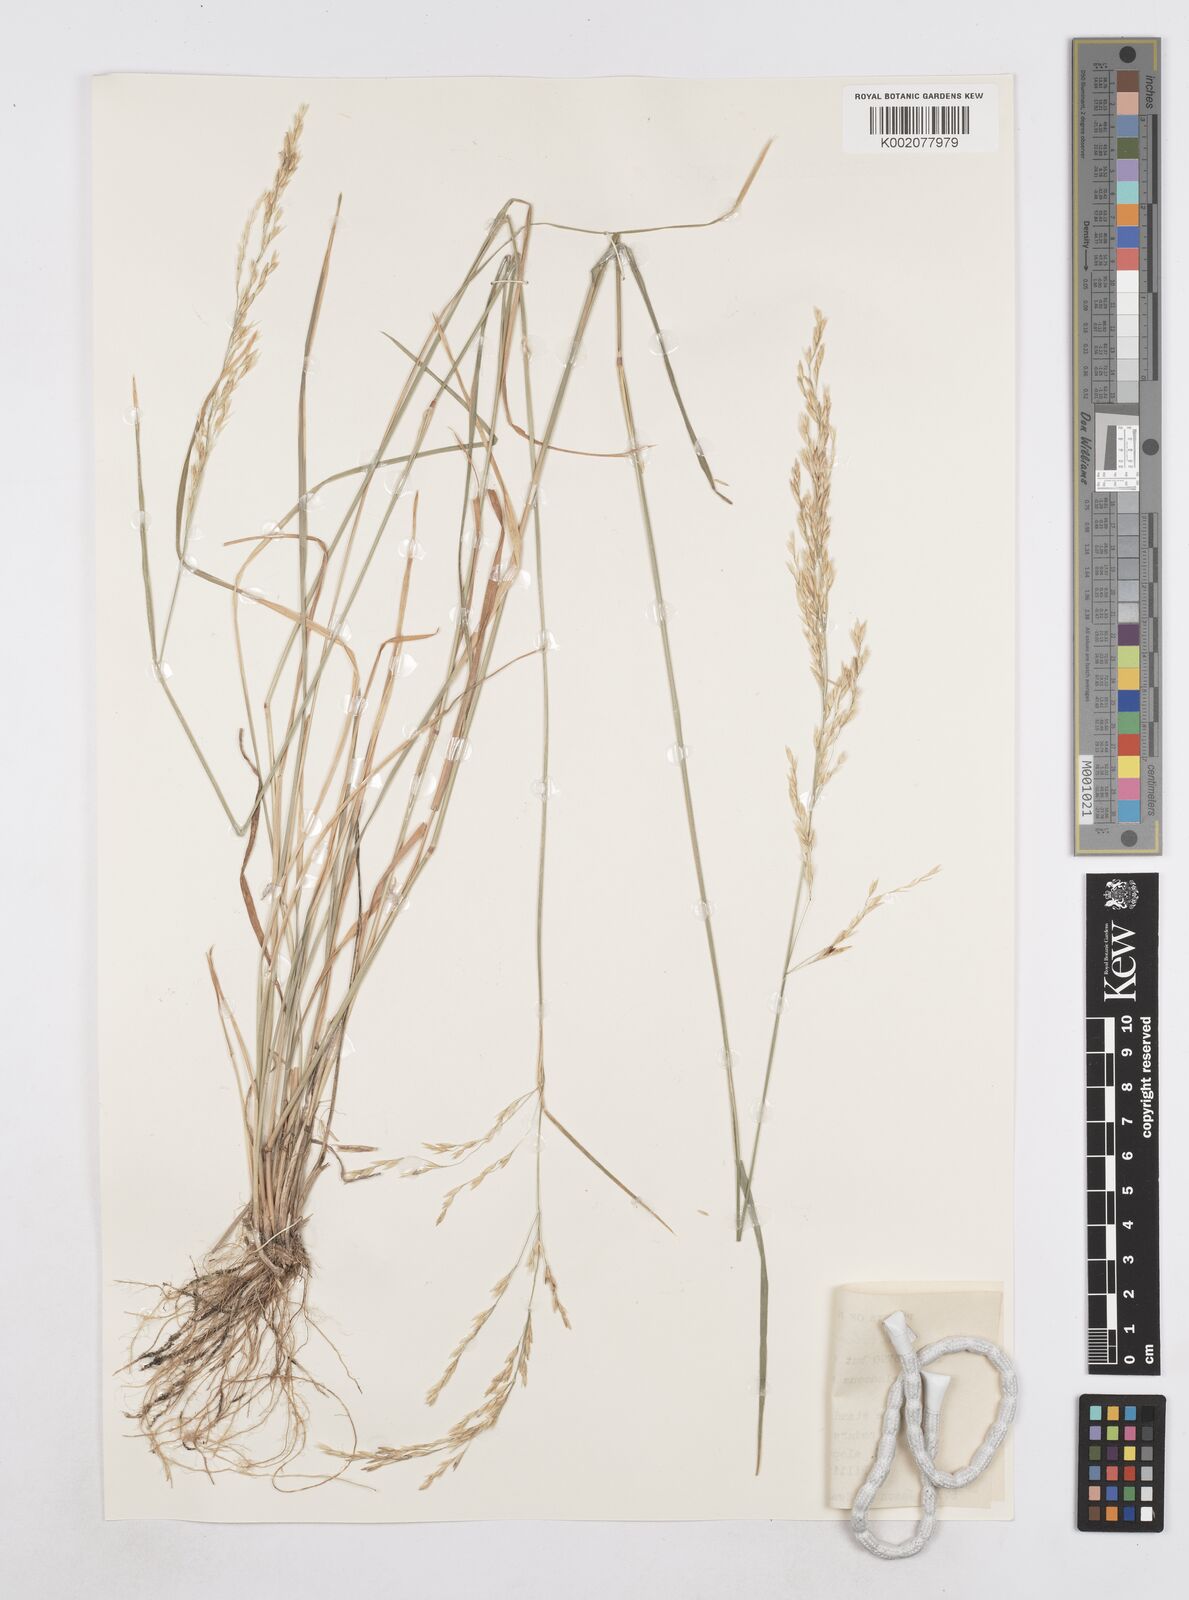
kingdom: Plantae
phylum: Tracheophyta
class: Liliopsida
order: Poales
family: Poaceae
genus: Poa
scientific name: Poa arida
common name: Plains bluegrass
